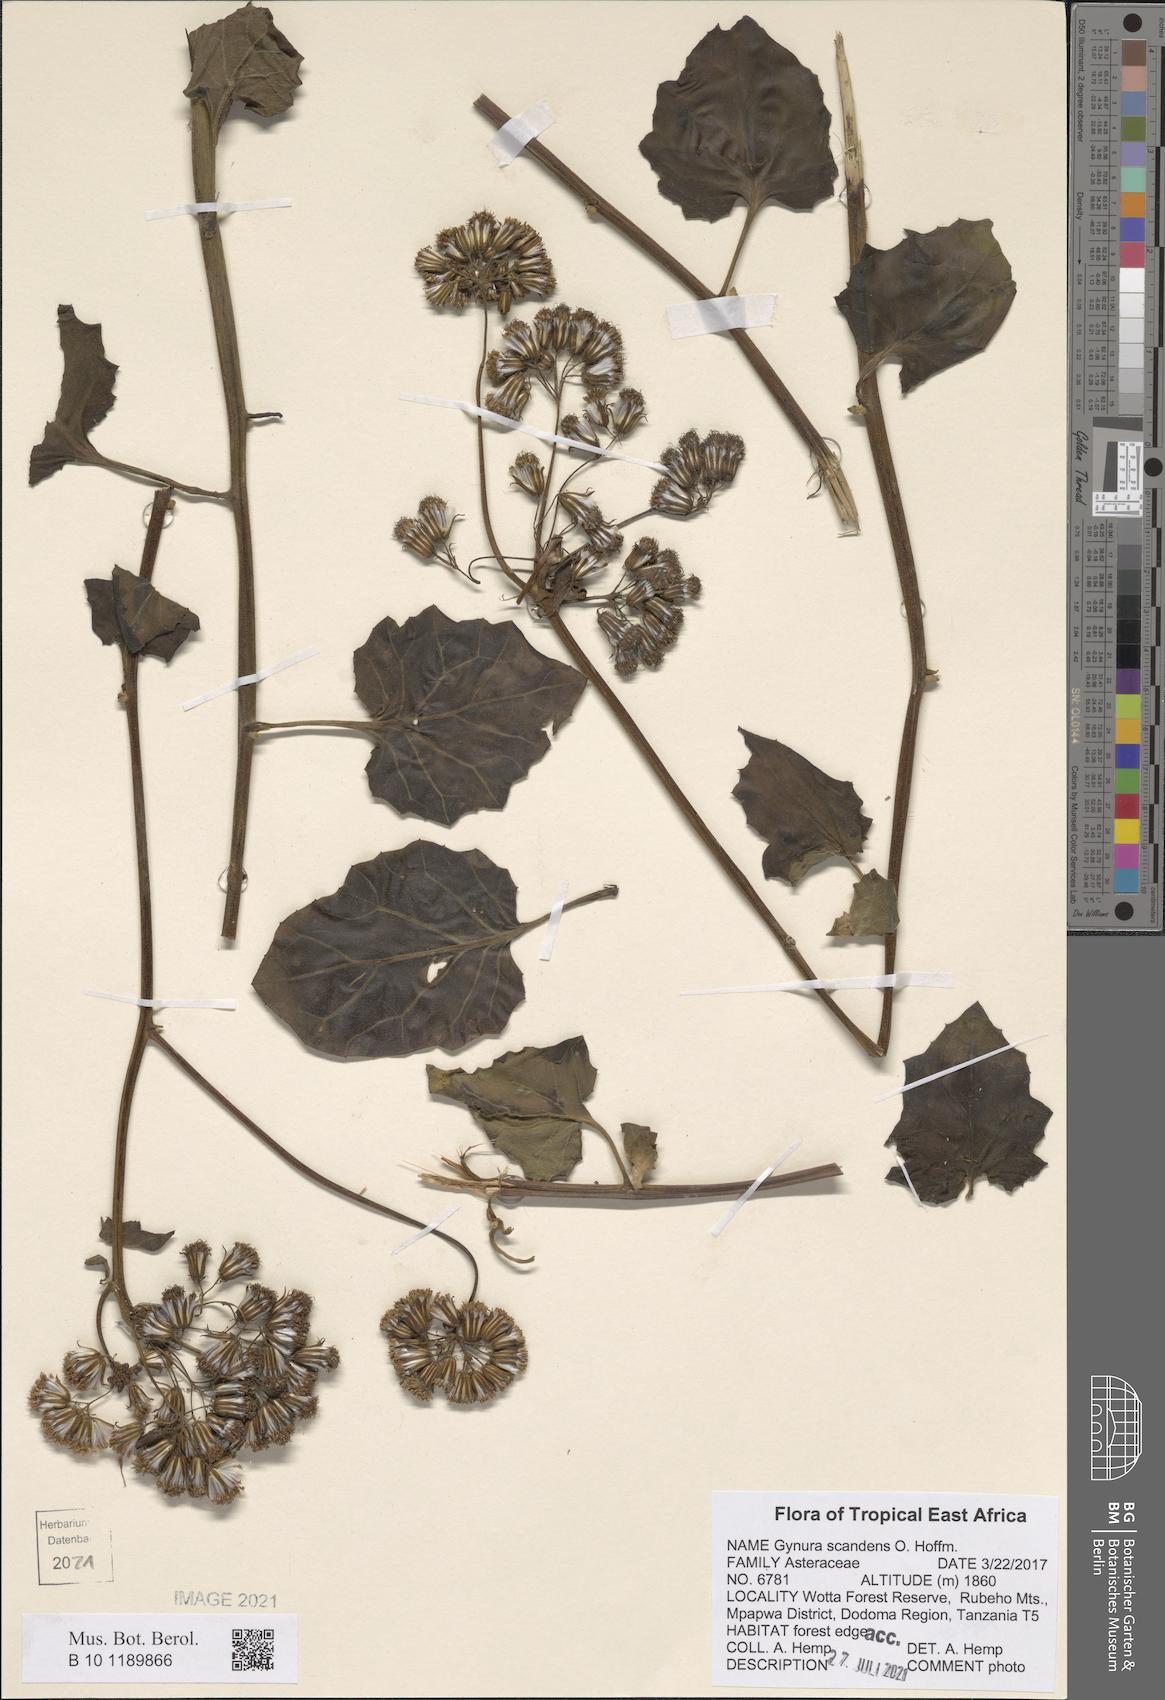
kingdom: Plantae
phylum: Tracheophyta
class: Magnoliopsida
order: Asterales
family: Asteraceae
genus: Gynura
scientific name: Gynura scandens
